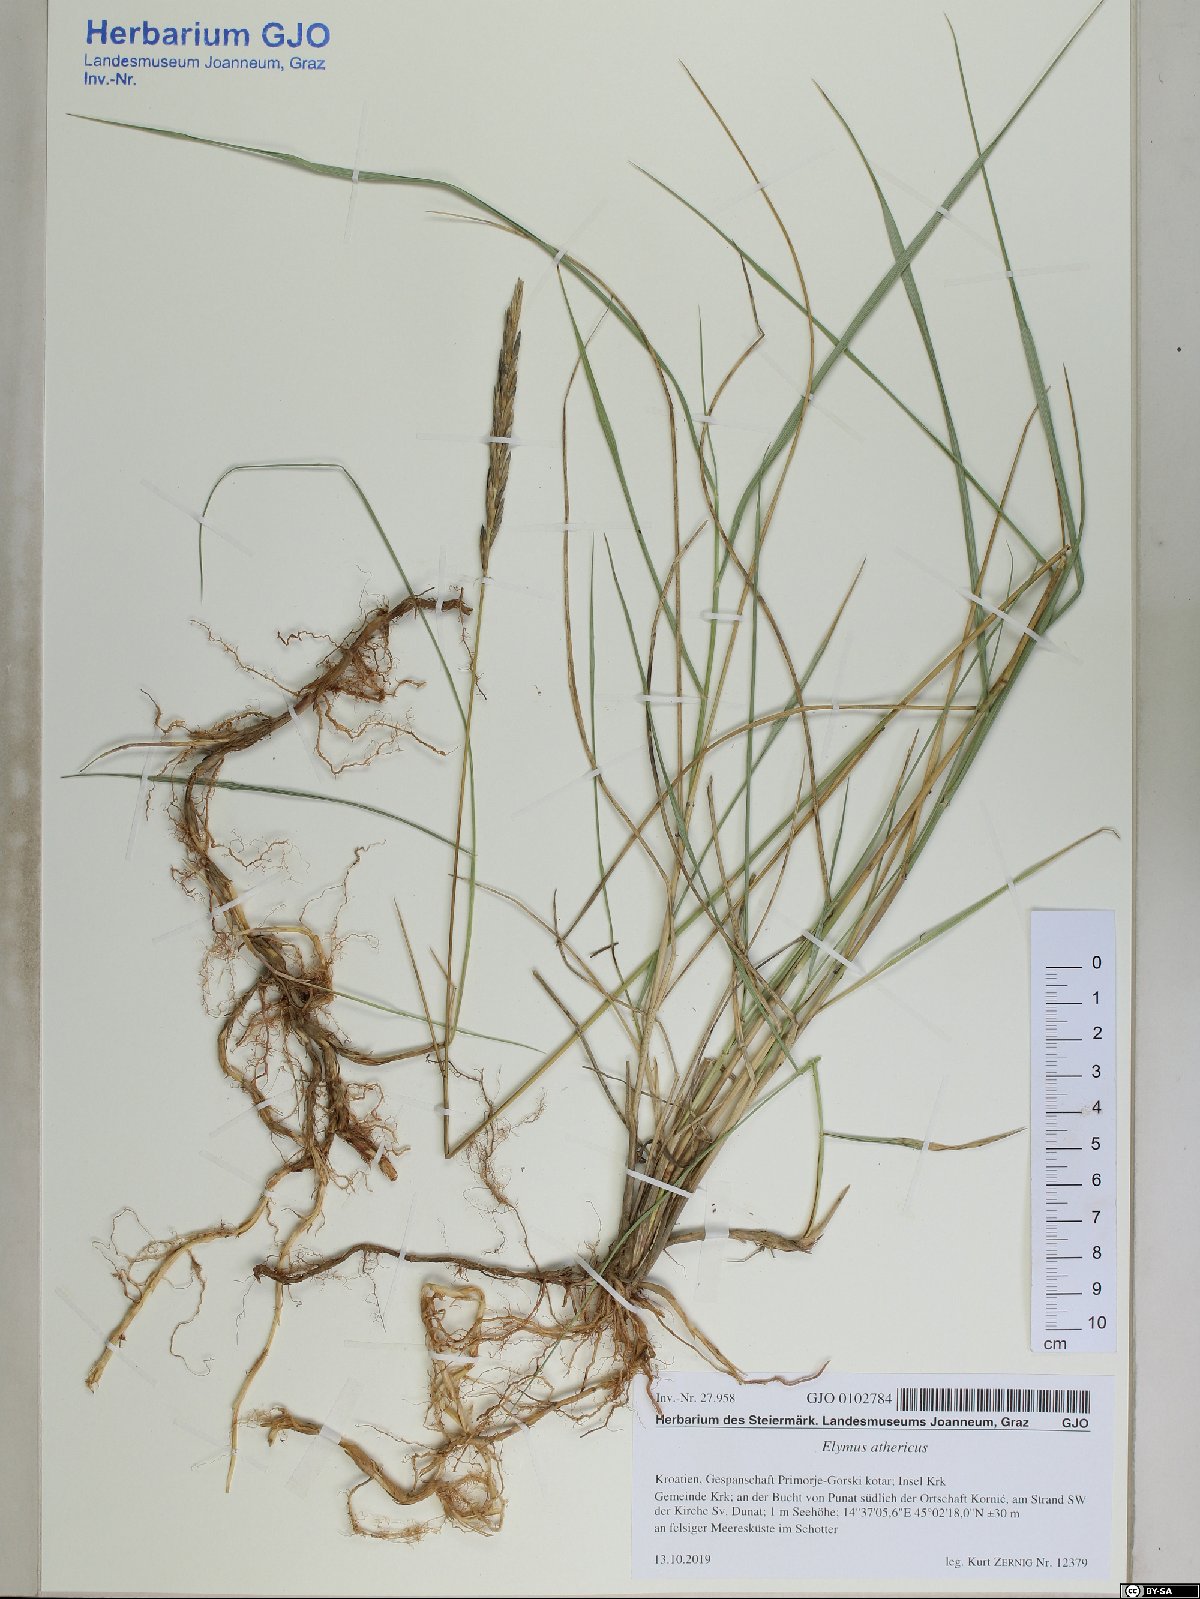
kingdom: Plantae
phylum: Tracheophyta
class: Liliopsida
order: Poales
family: Poaceae
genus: Elymus
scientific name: Elymus athericus
